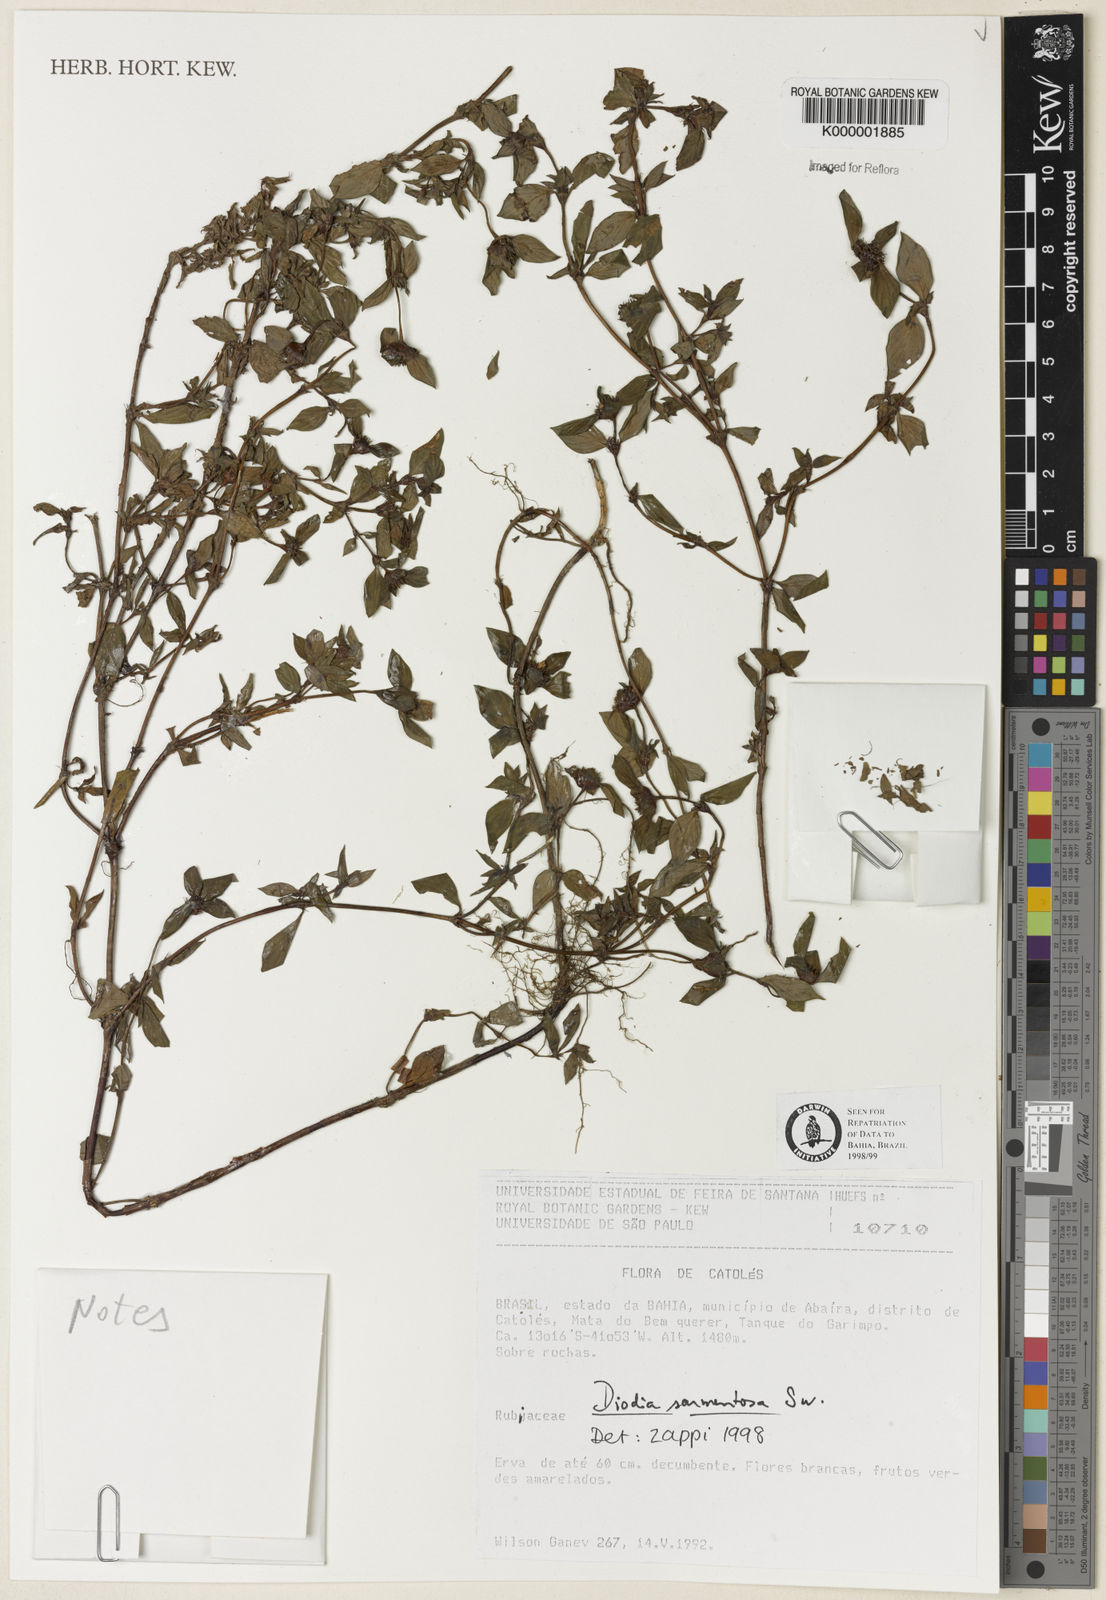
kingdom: Plantae
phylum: Tracheophyta
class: Magnoliopsida
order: Gentianales
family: Rubiaceae
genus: Hexasepalum
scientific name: Hexasepalum sarmentosum
